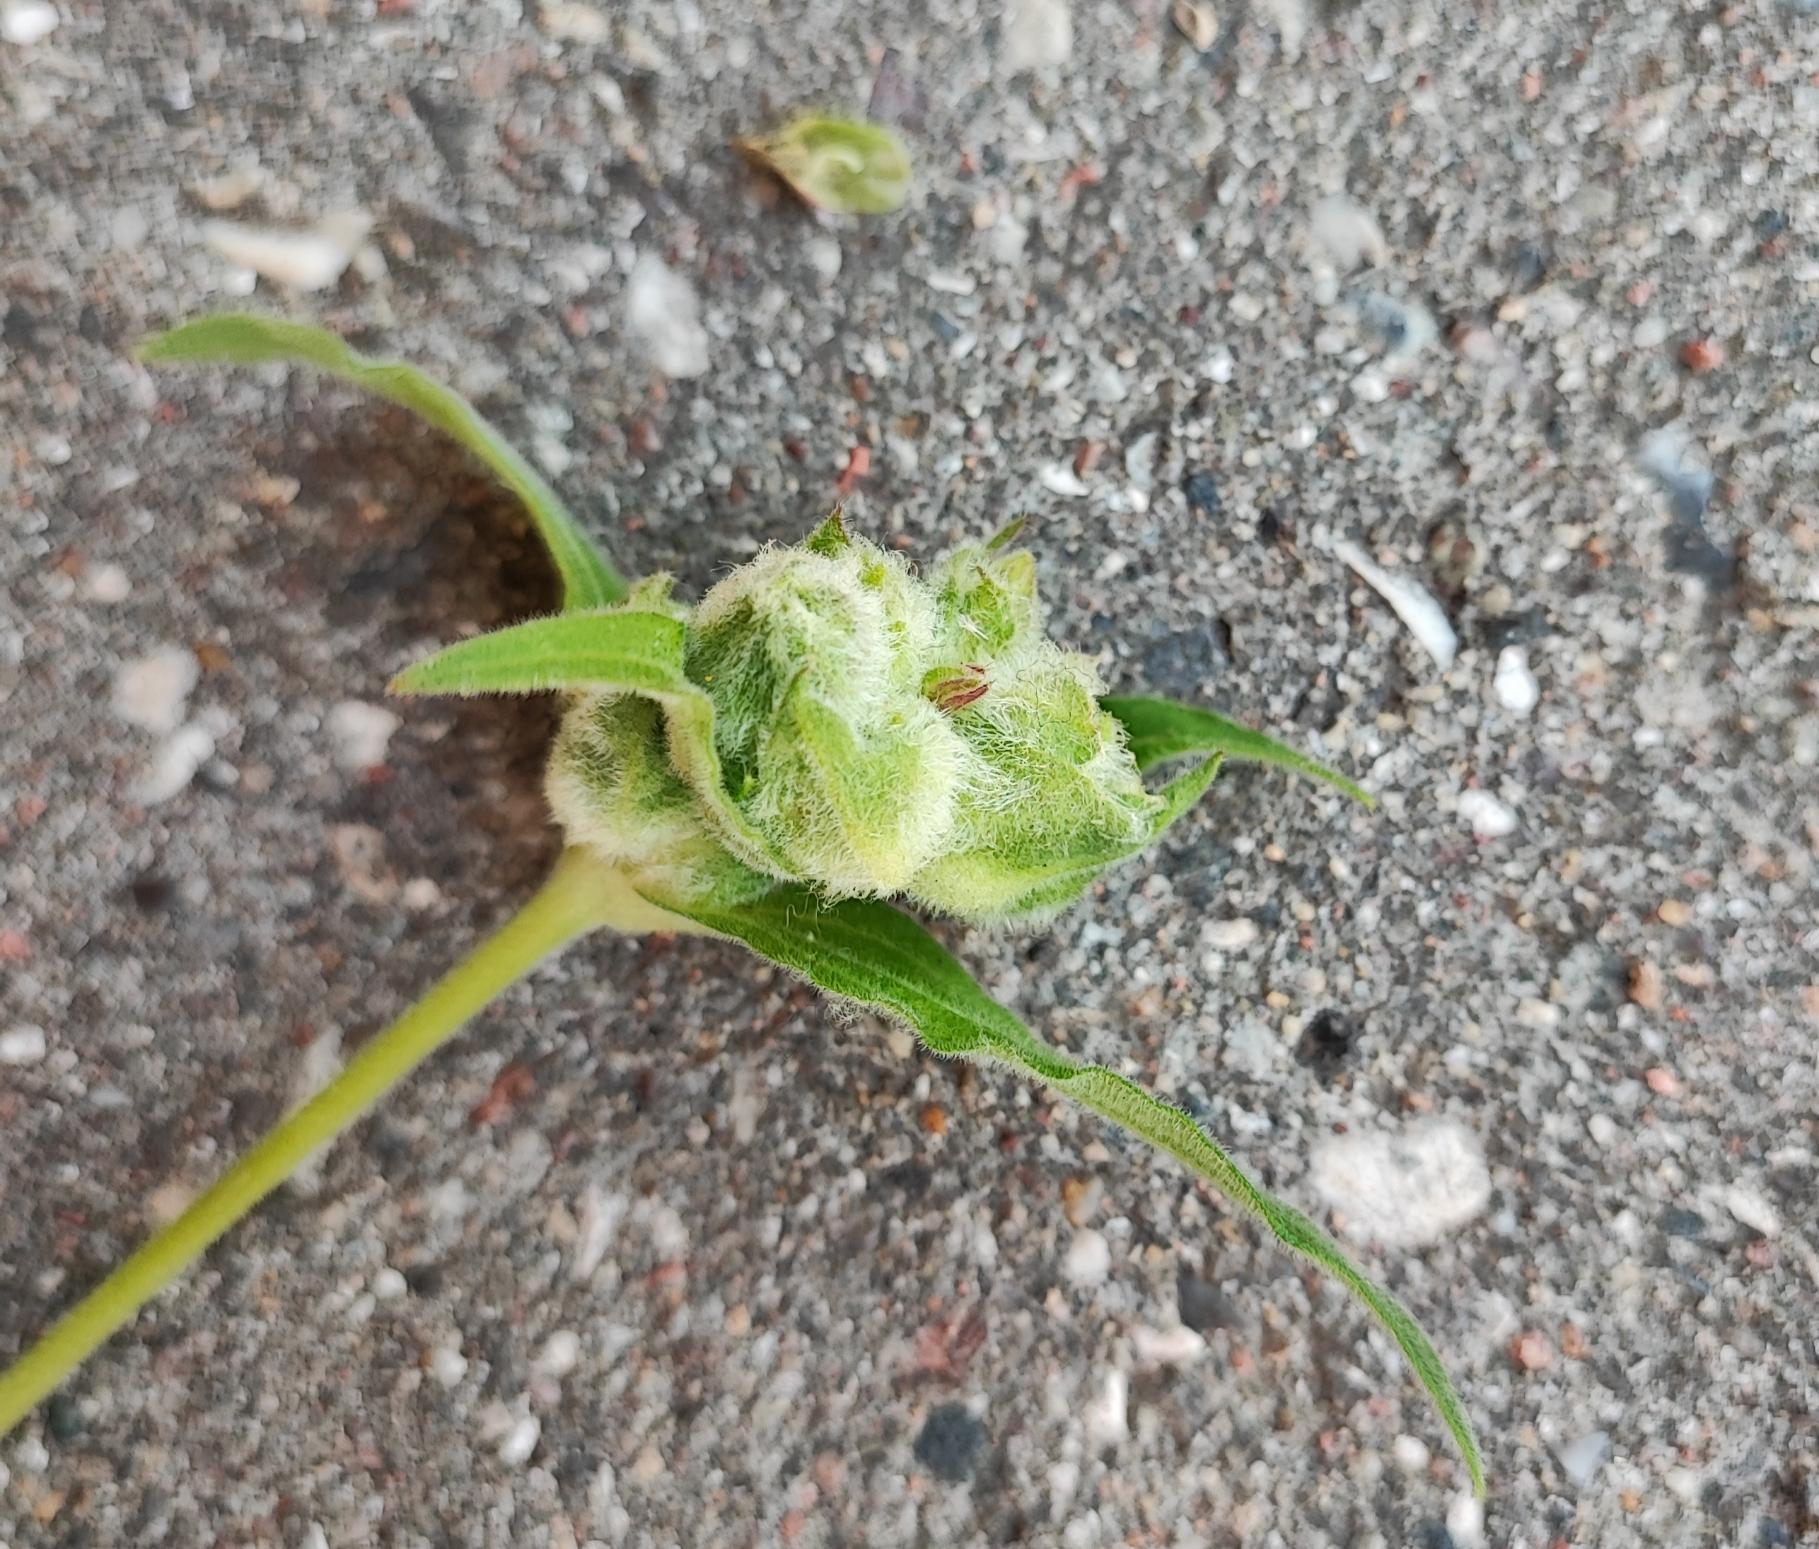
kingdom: Animalia
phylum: Arthropoda
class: Insecta
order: Diptera
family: Cecidomyiidae
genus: Neomikiella
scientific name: Neomikiella lychnidis
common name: Oldingegalmyg
